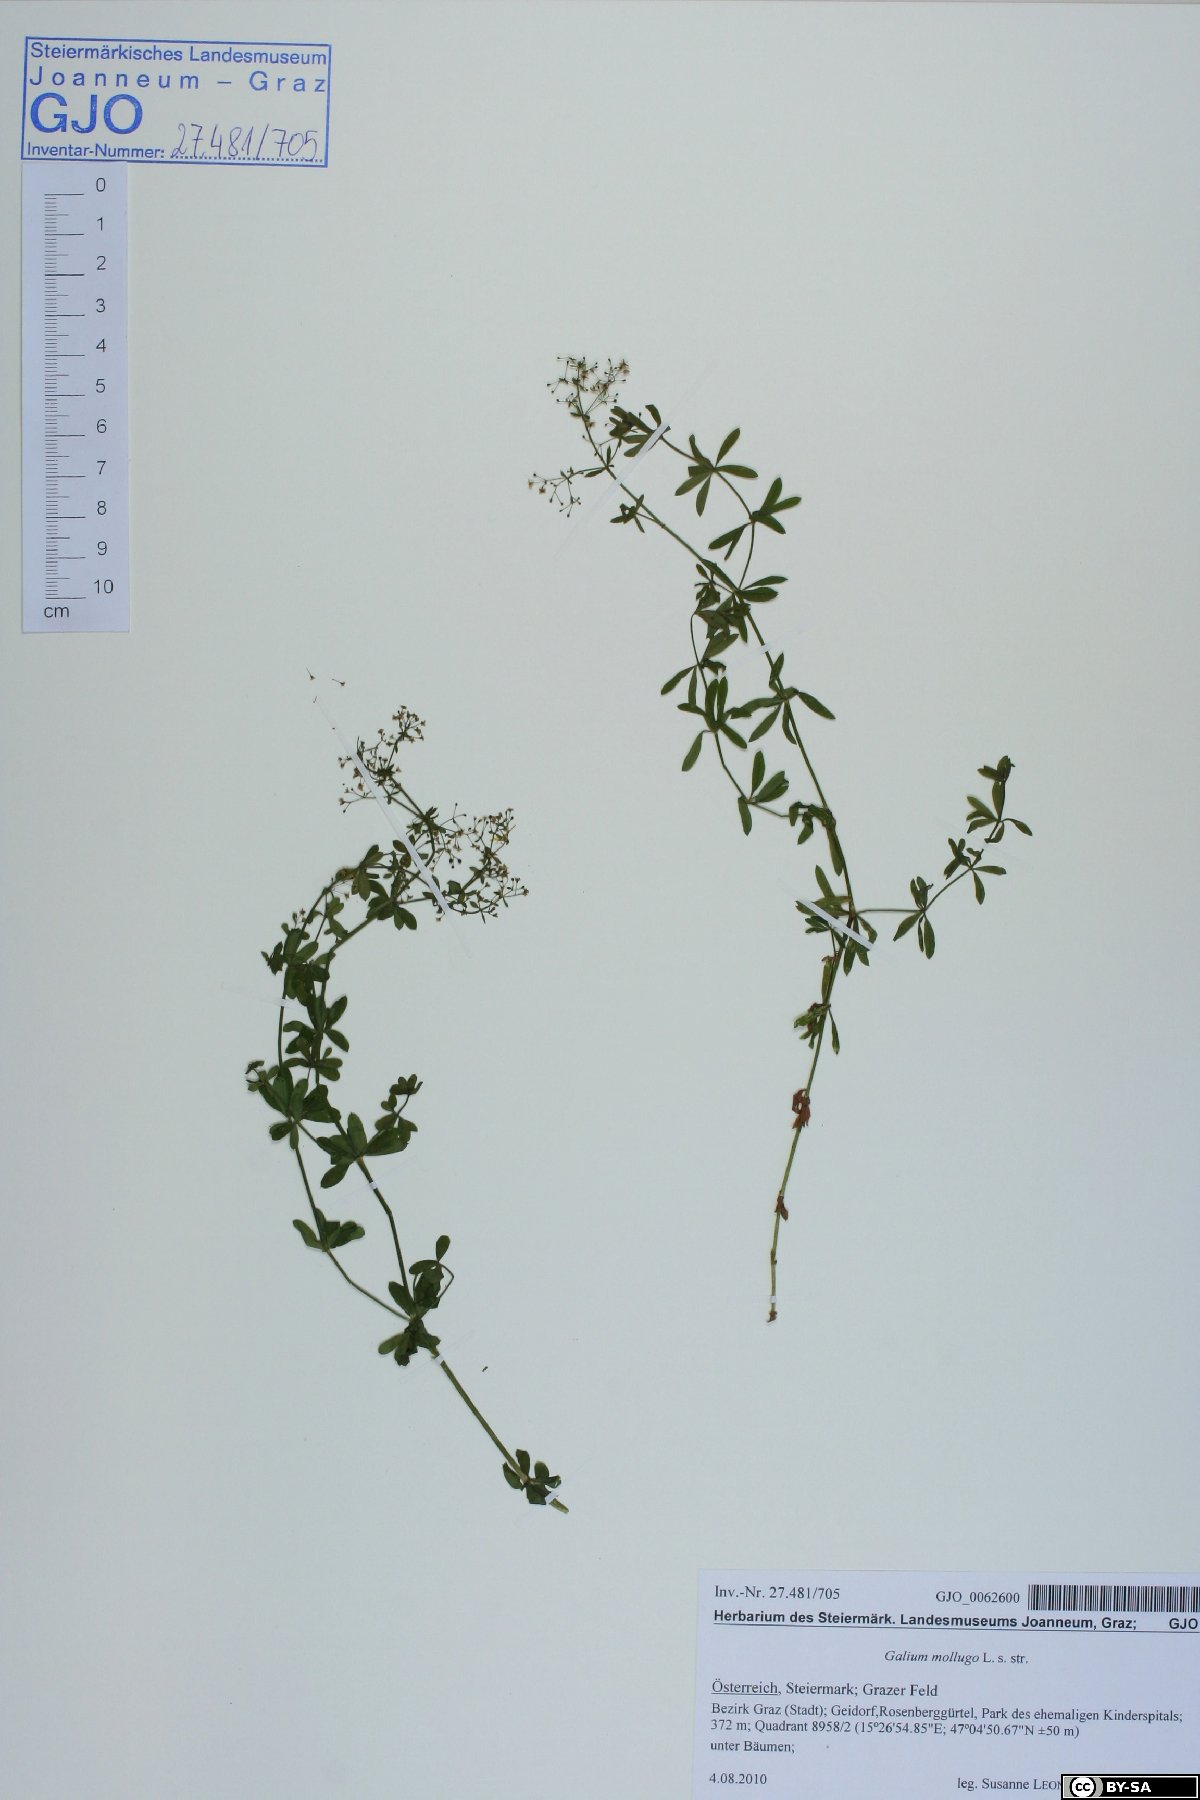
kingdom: Plantae
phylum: Tracheophyta
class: Magnoliopsida
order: Gentianales
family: Rubiaceae
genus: Galium
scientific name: Galium mollugo
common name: Hedge bedstraw
